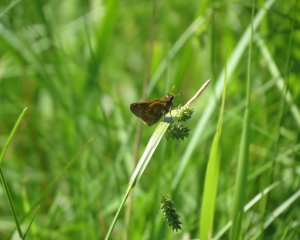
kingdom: Animalia
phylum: Arthropoda
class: Insecta
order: Lepidoptera
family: Hesperiidae
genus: Polites
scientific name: Polites
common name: Long Dash Skipper
